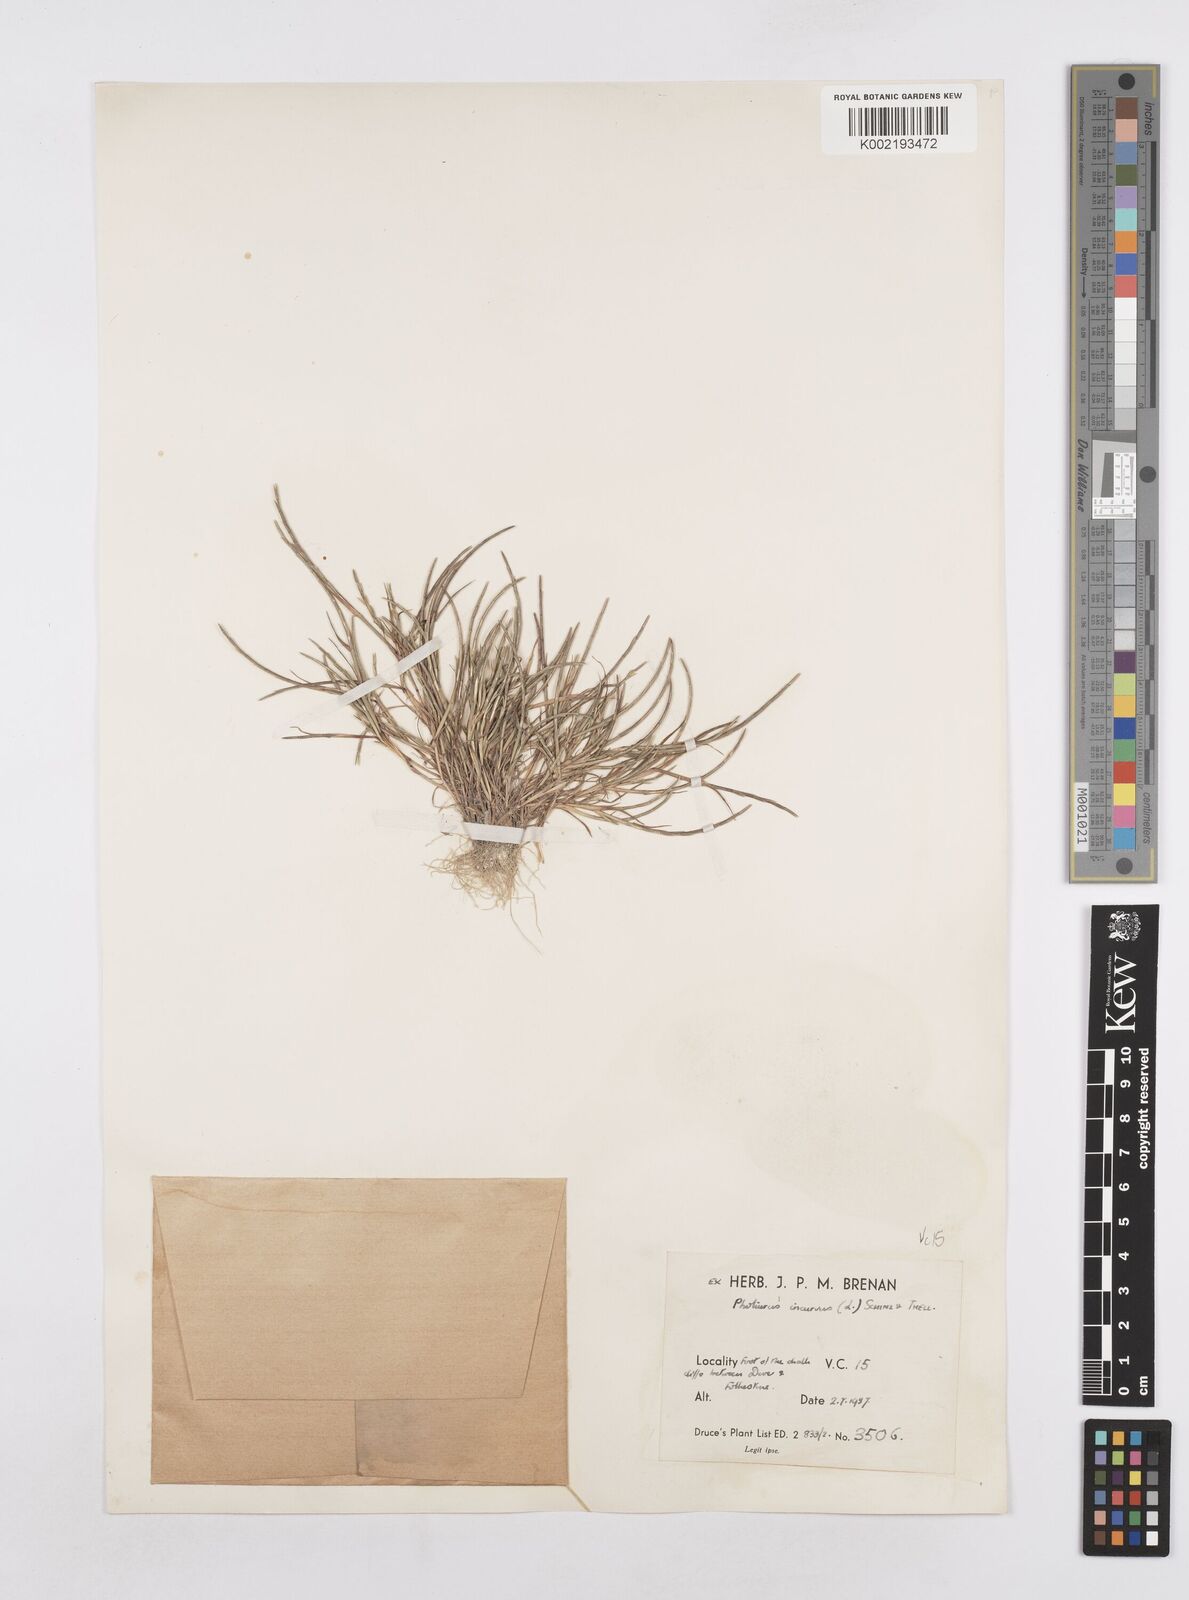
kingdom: Plantae
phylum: Tracheophyta
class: Liliopsida
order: Poales
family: Poaceae
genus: Parapholis
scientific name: Parapholis incurva
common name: Curved sicklegrass
